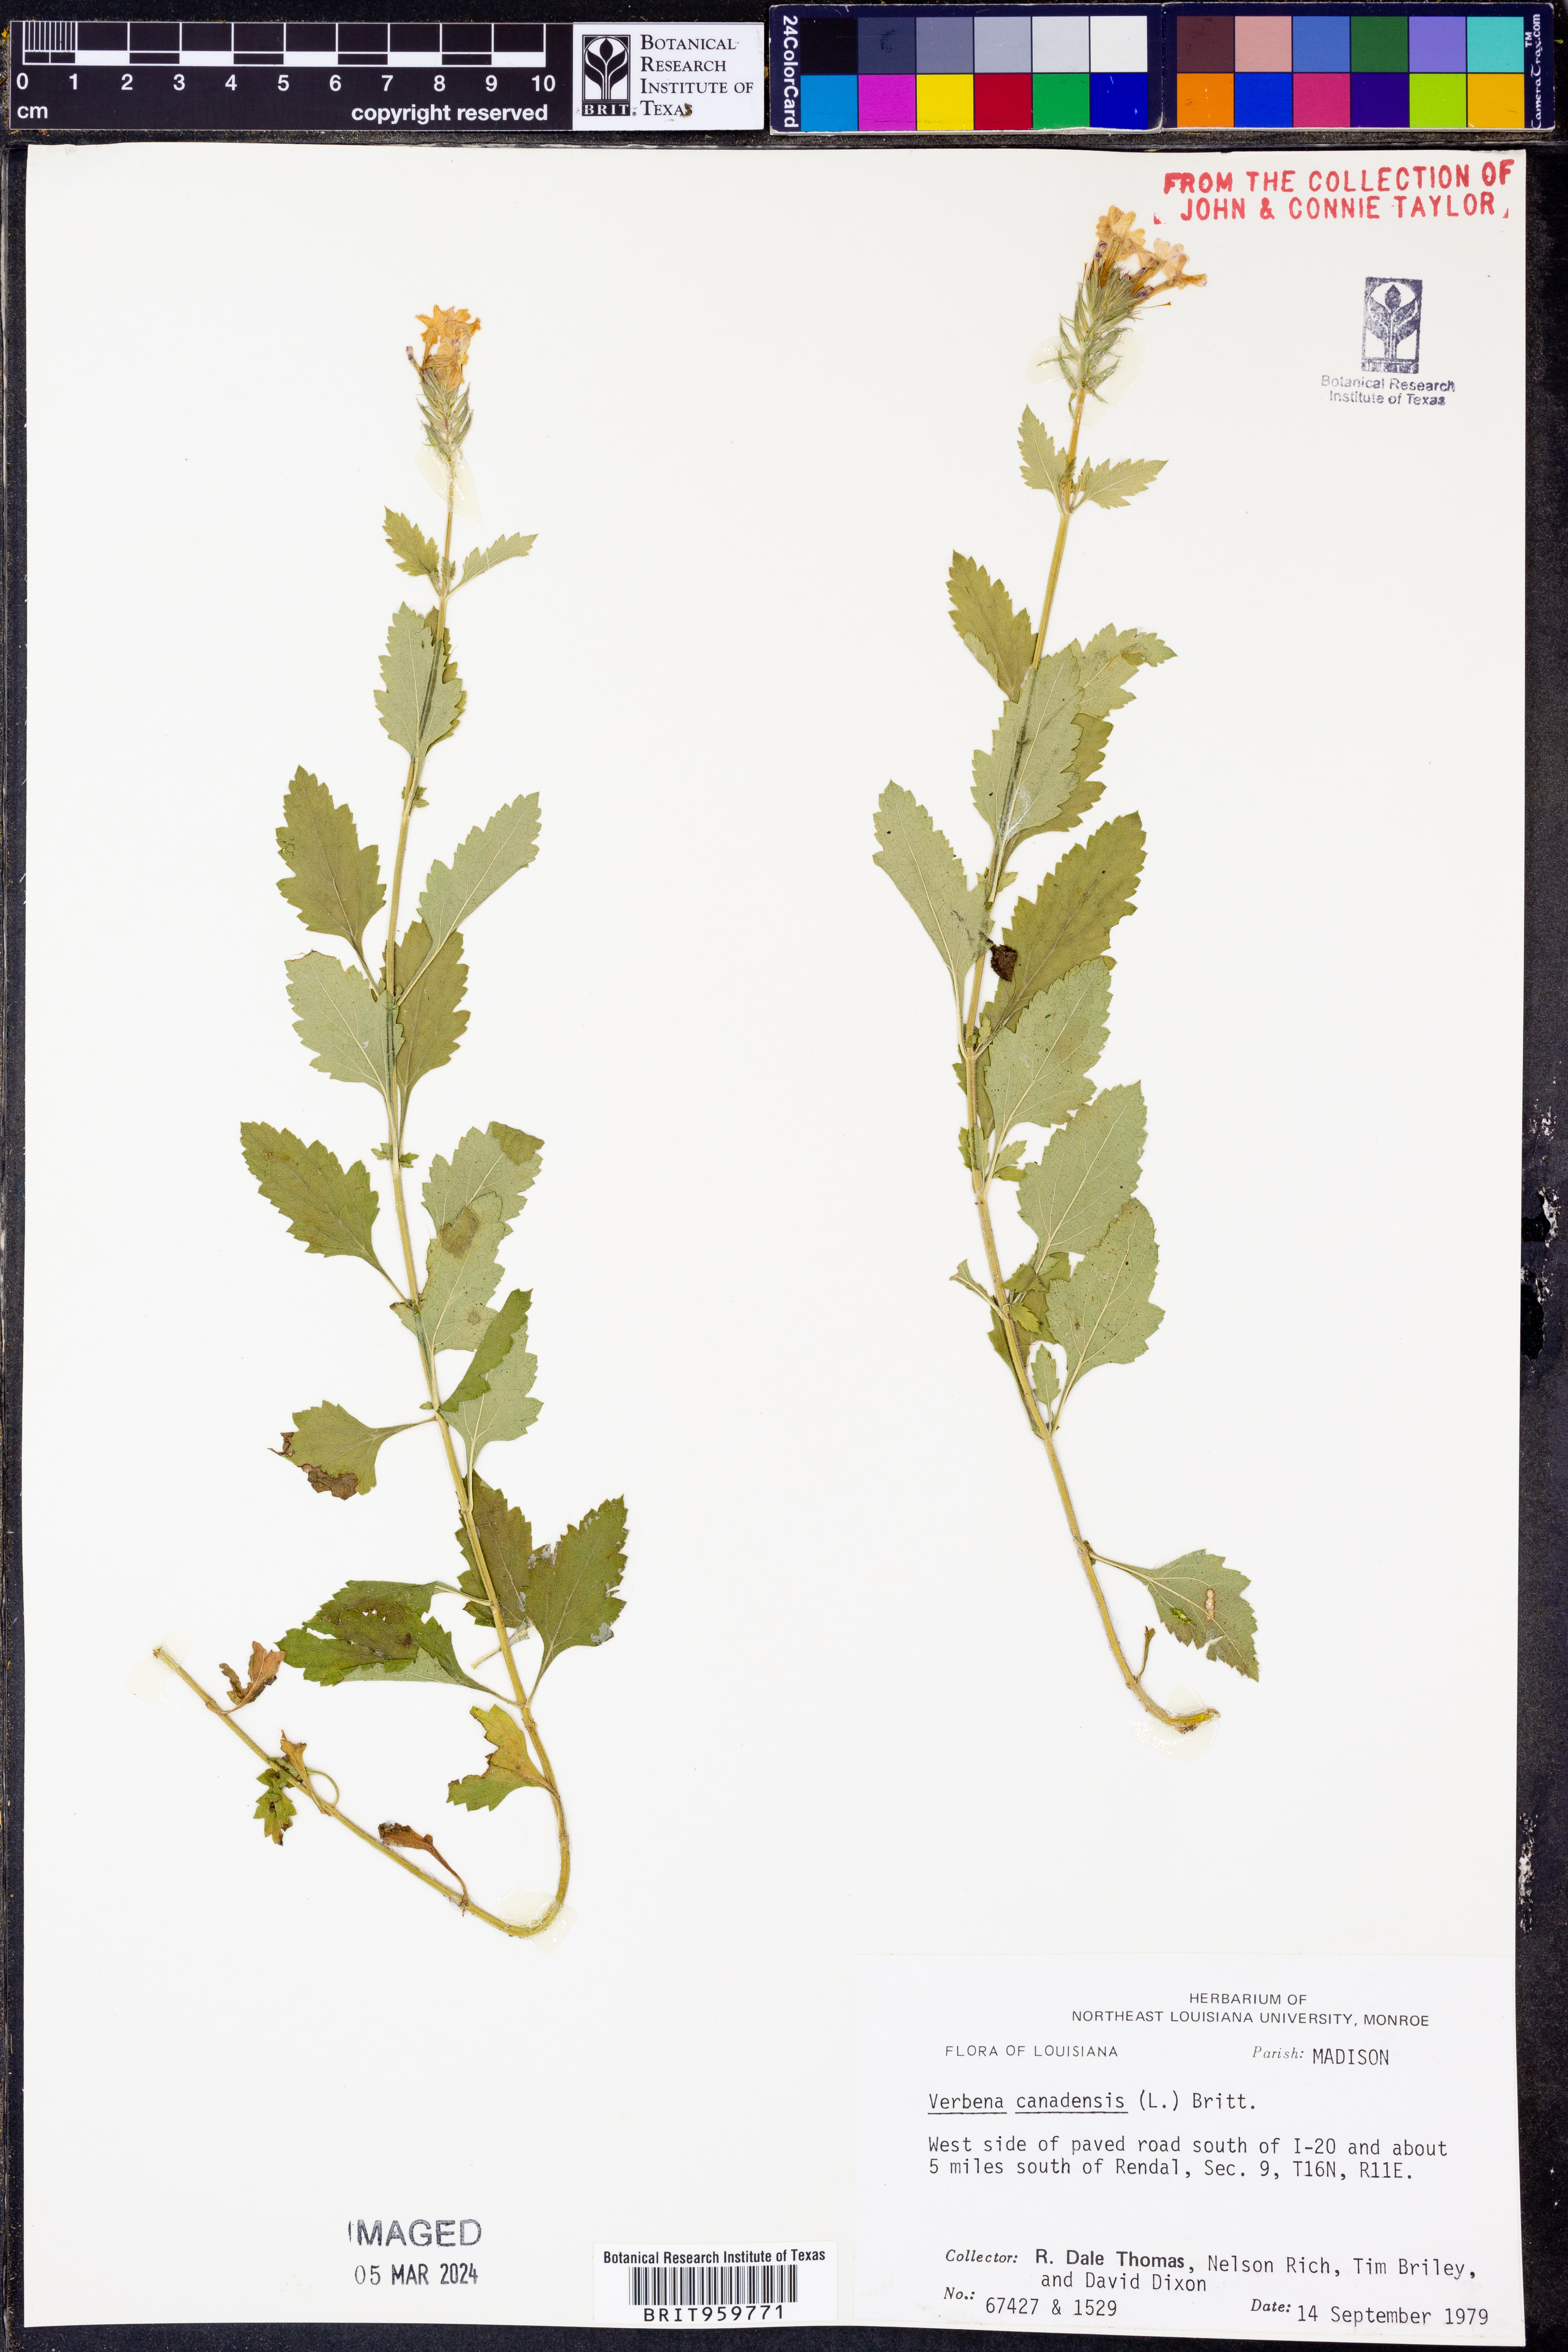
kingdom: Plantae
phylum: Tracheophyta
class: Magnoliopsida
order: Lamiales
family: Verbenaceae
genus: Verbena
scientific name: Verbena canadensis
